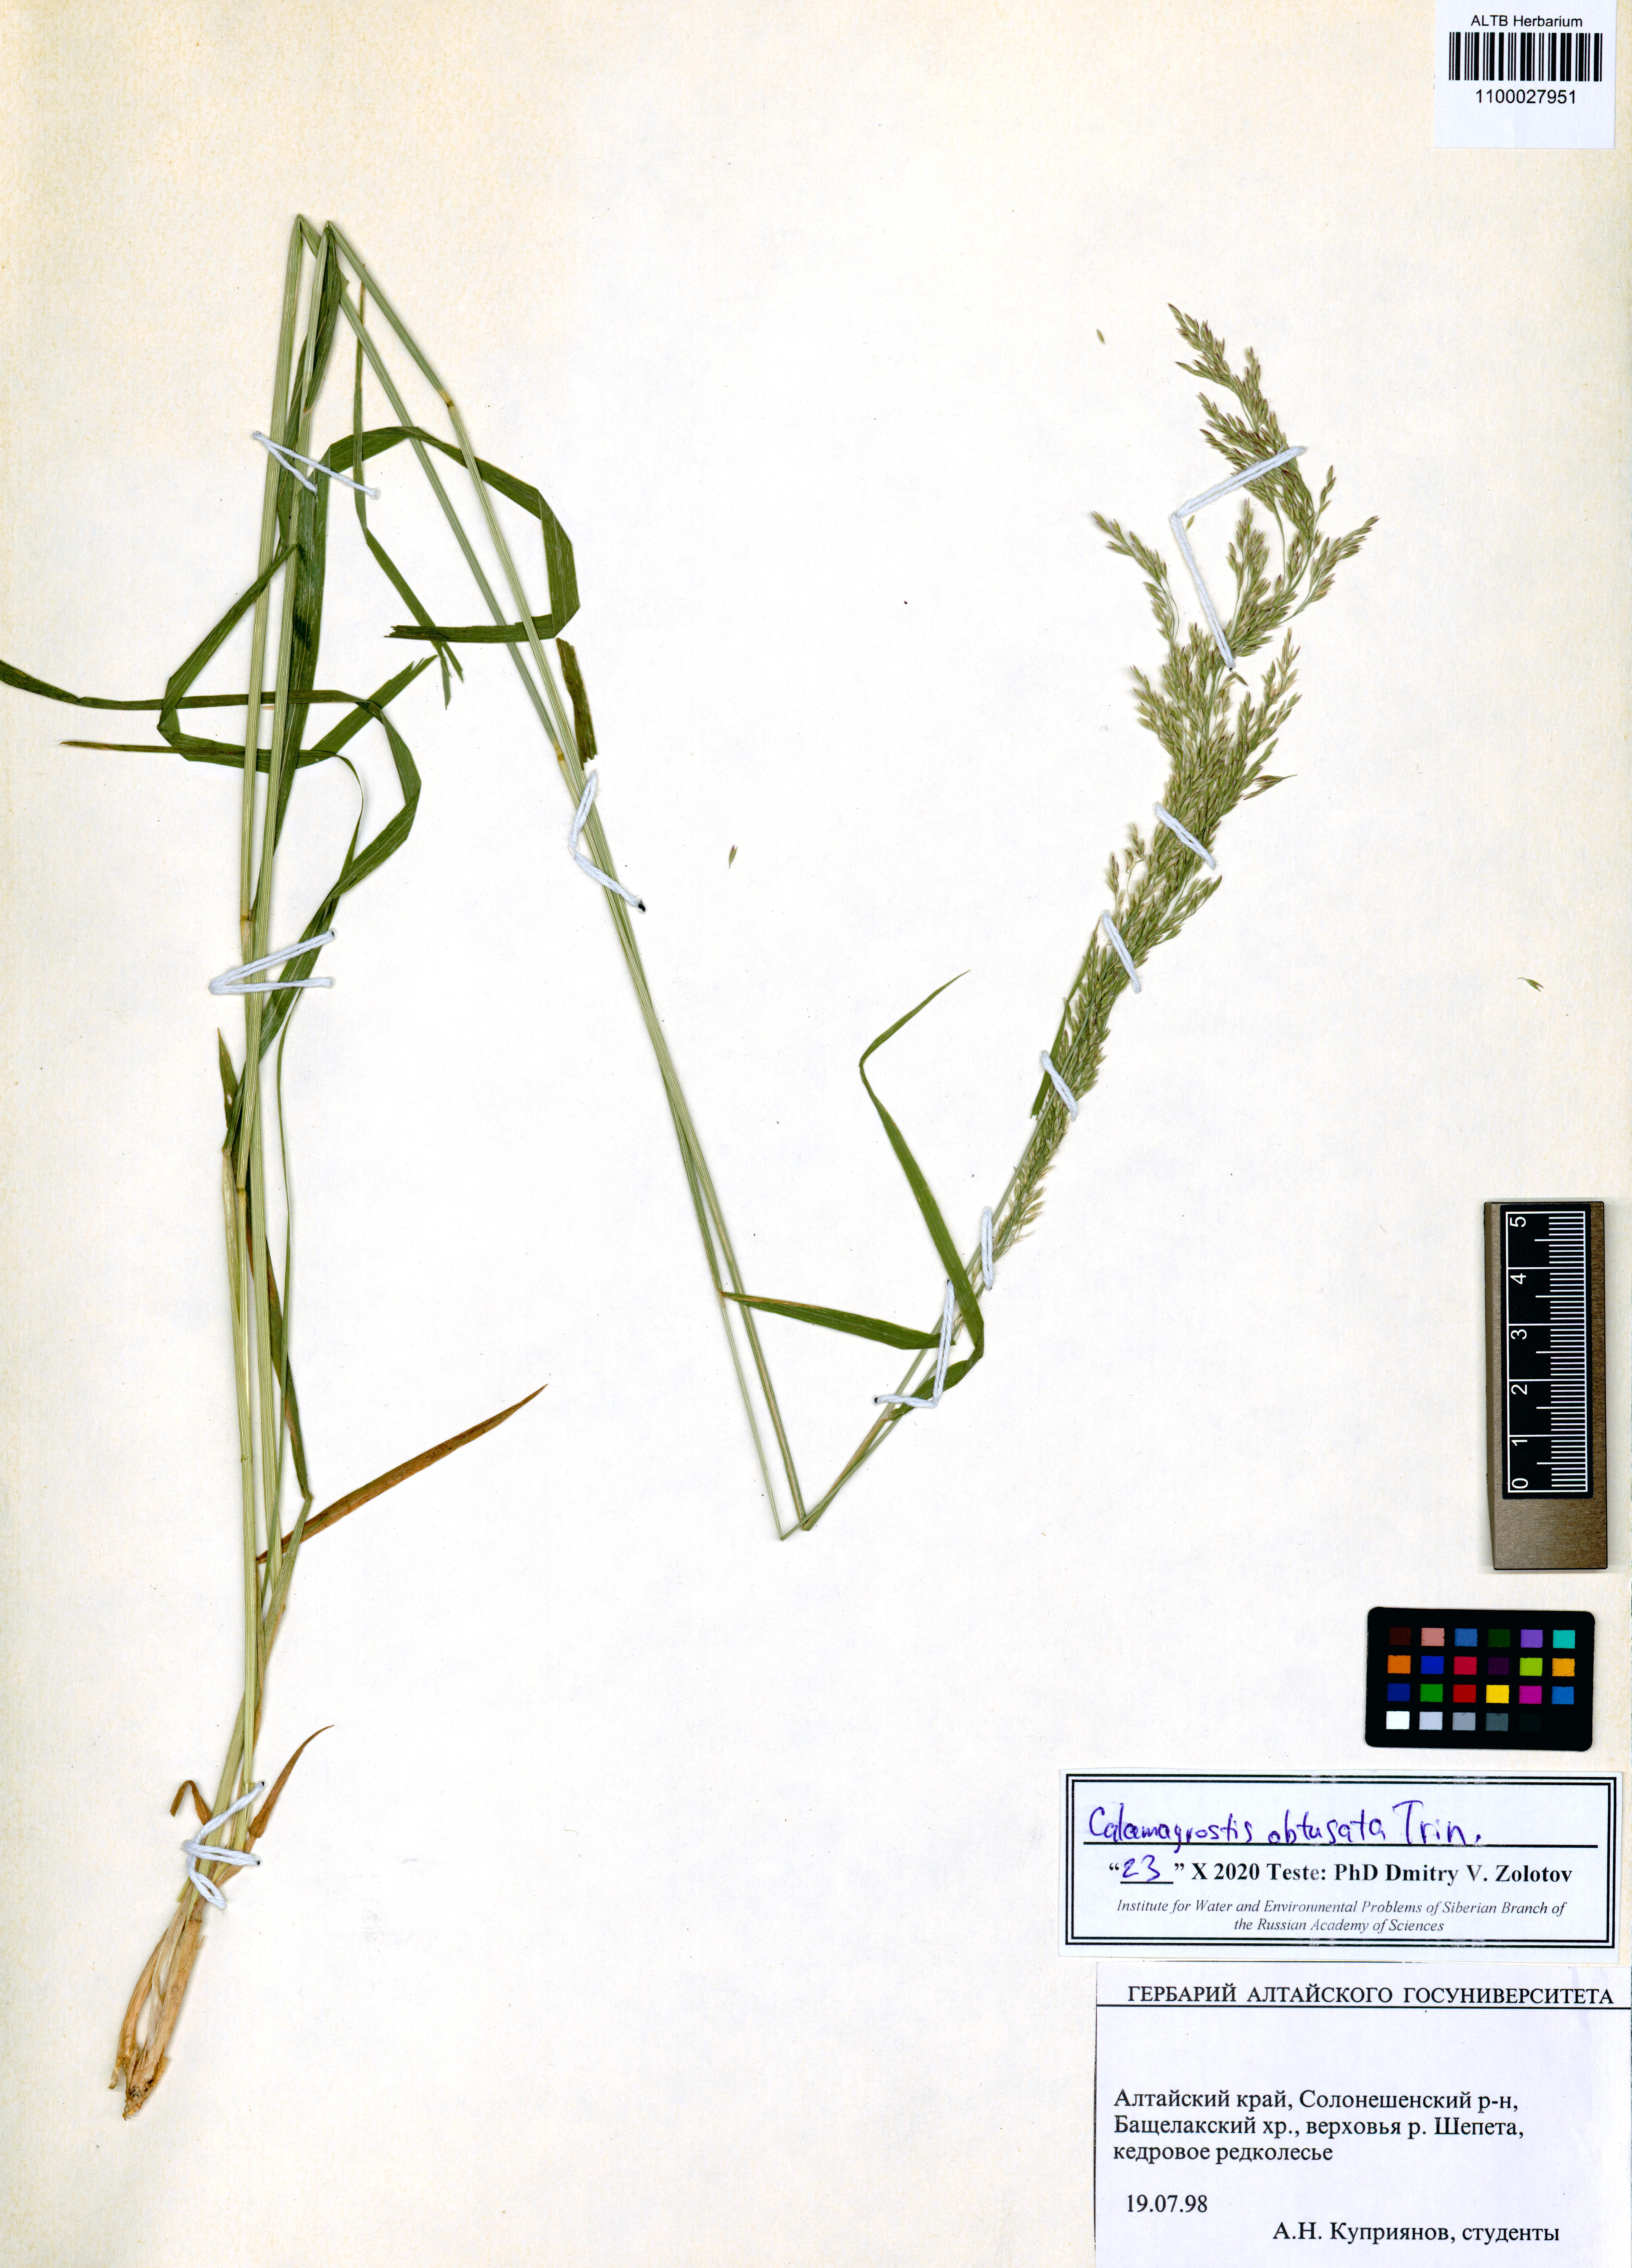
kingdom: Plantae
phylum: Tracheophyta
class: Liliopsida
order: Poales
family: Poaceae
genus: Calamagrostis
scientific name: Calamagrostis obtusata
